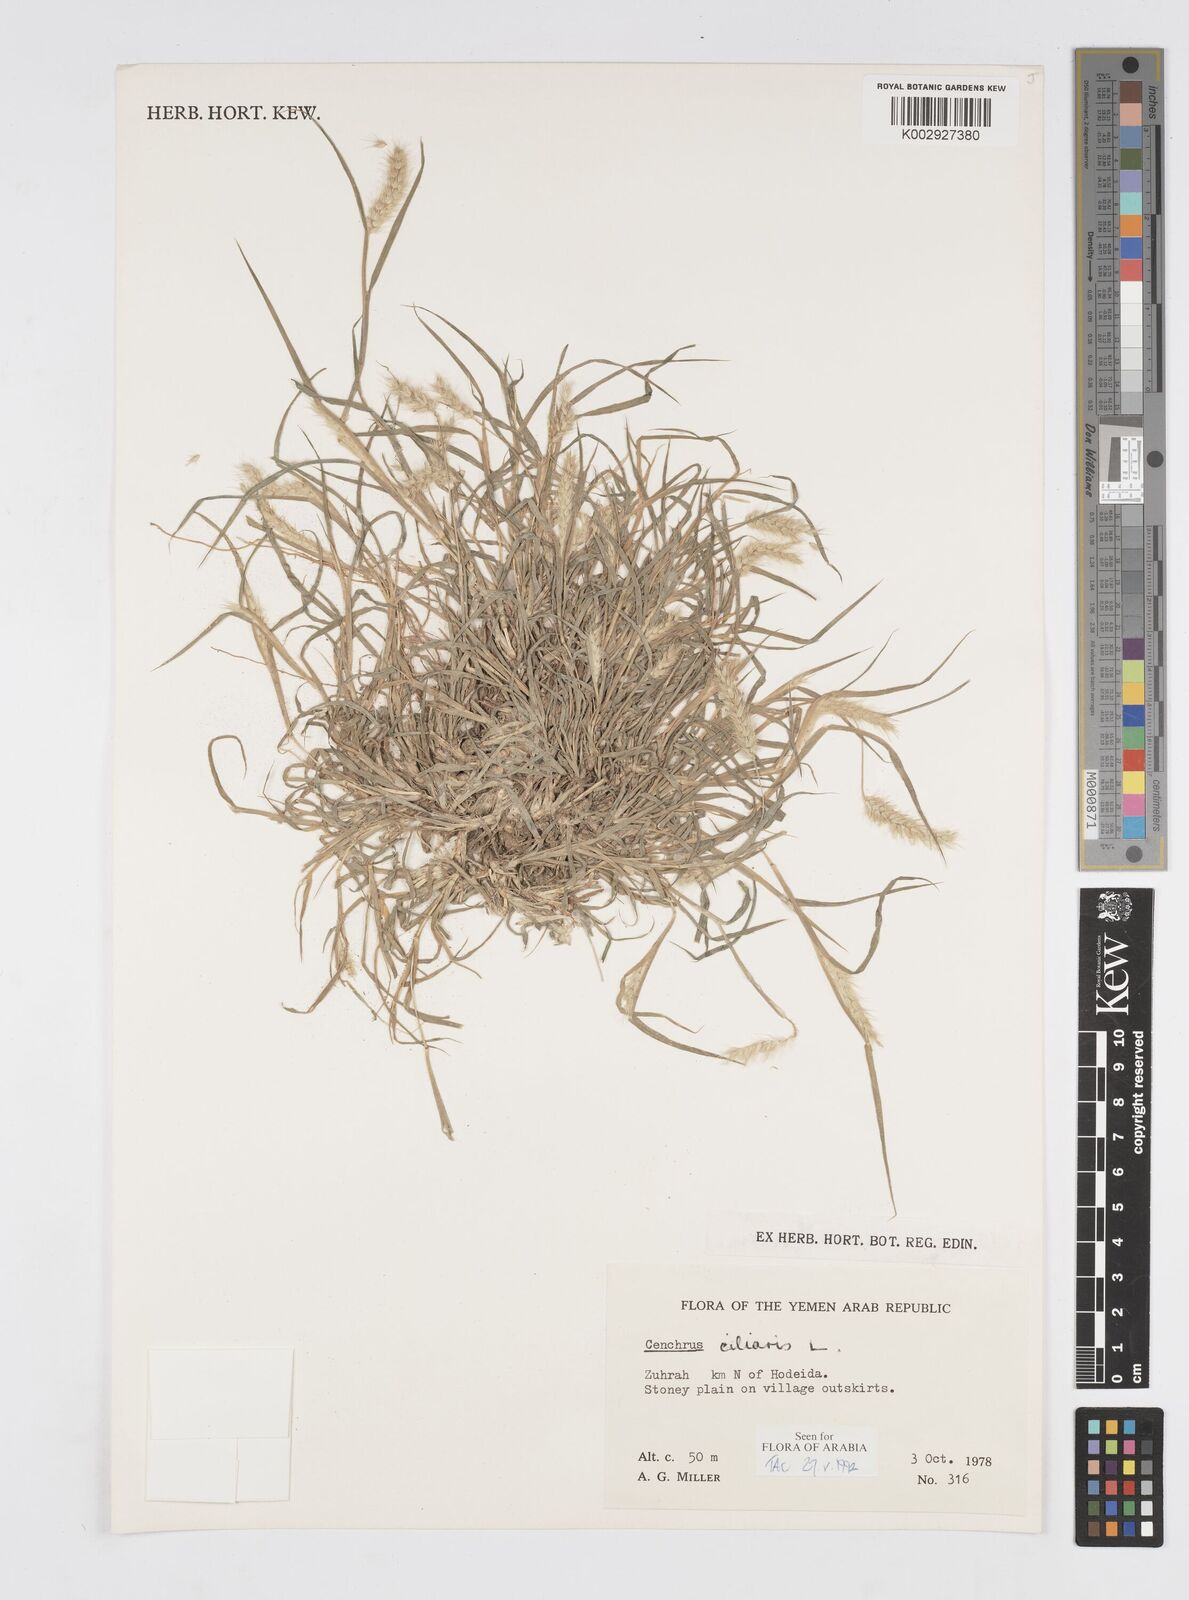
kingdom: Plantae
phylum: Tracheophyta
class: Liliopsida
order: Poales
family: Poaceae
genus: Cenchrus
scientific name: Cenchrus ciliaris
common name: Buffelgrass
